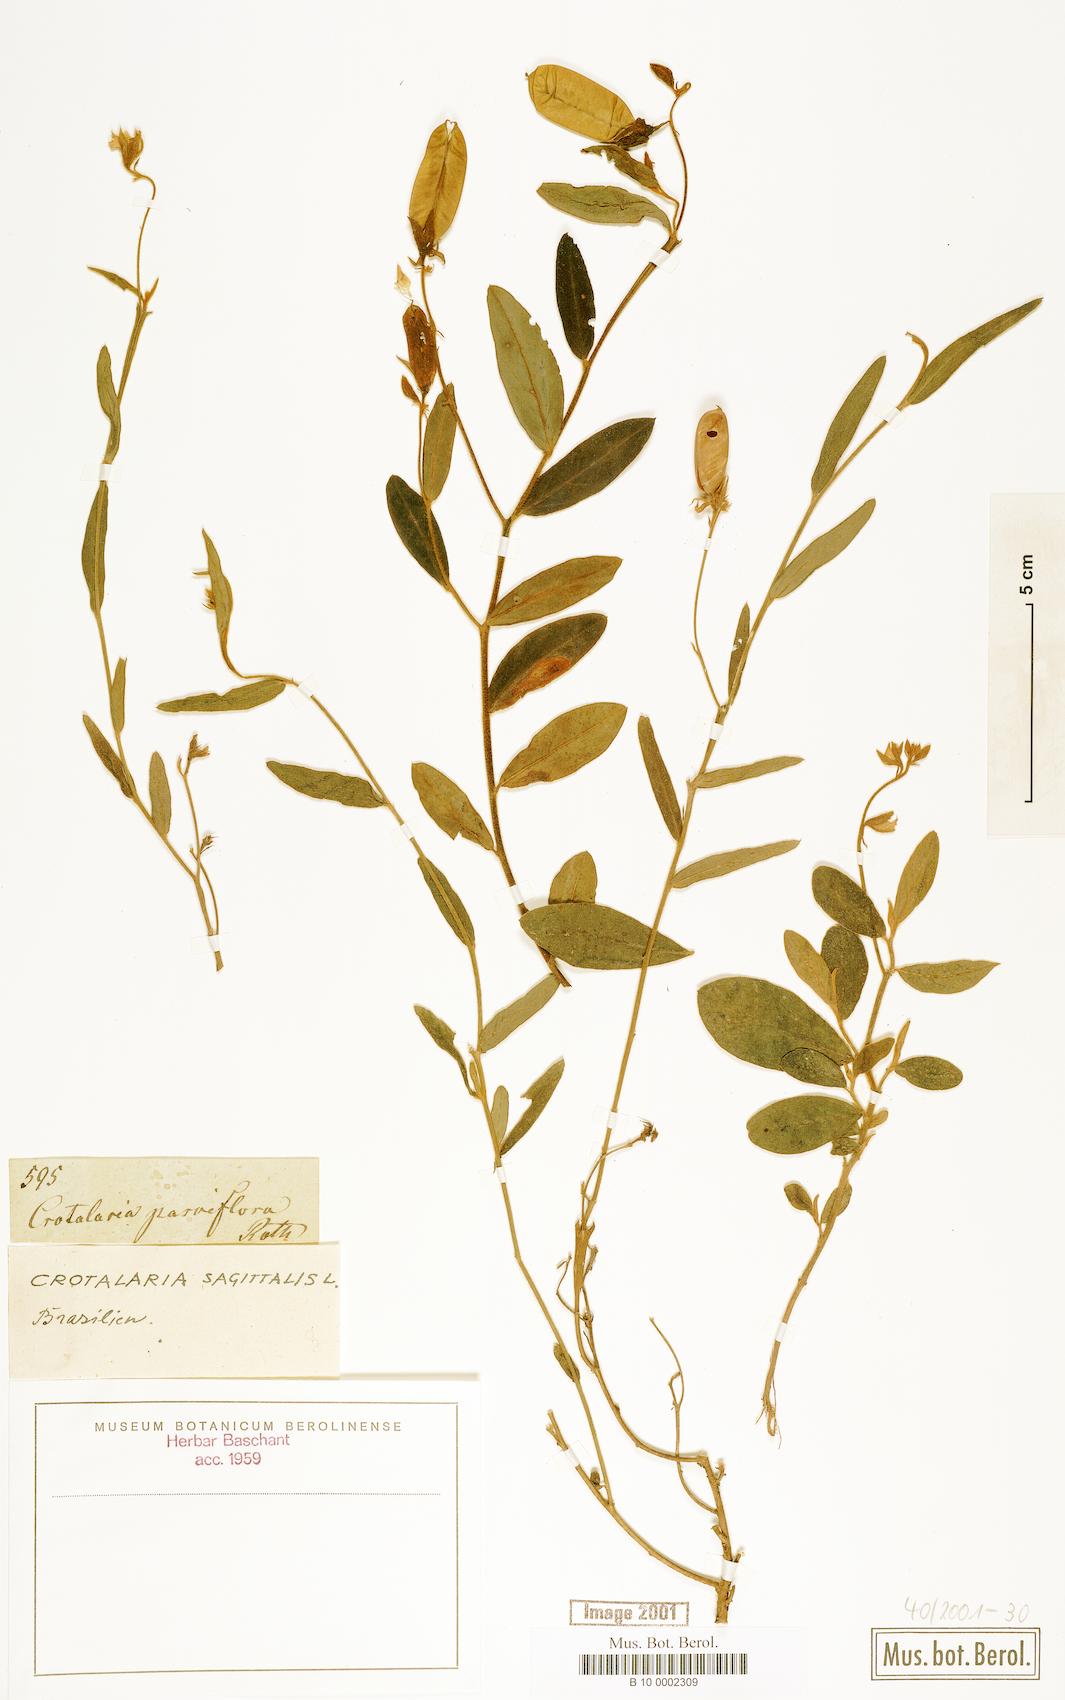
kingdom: Plantae
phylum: Tracheophyta
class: Magnoliopsida
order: Fabales
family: Fabaceae
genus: Crotalaria
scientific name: Crotalaria sagittalis
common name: Arrowhead rattlebox
